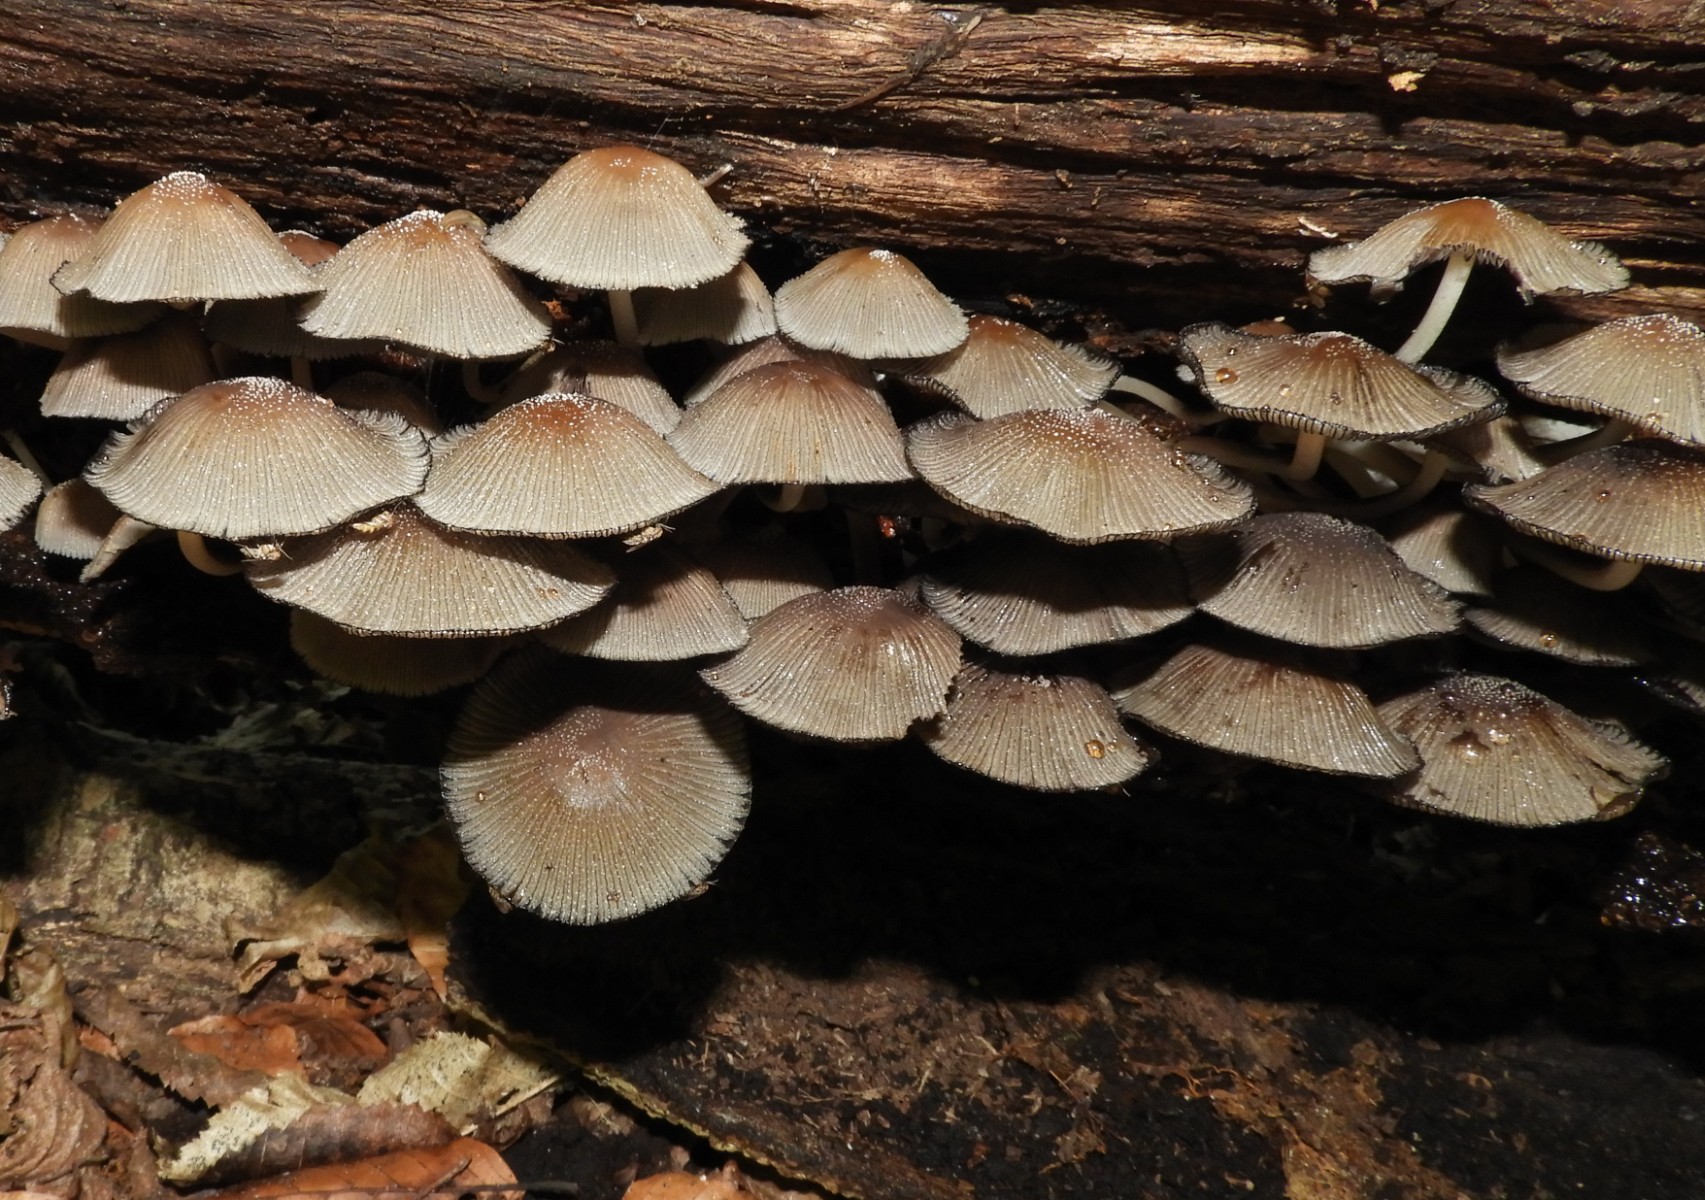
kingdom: Fungi
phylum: Basidiomycota
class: Agaricomycetes
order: Agaricales
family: Psathyrellaceae
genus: Coprinellus
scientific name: Coprinellus
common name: blækhat
